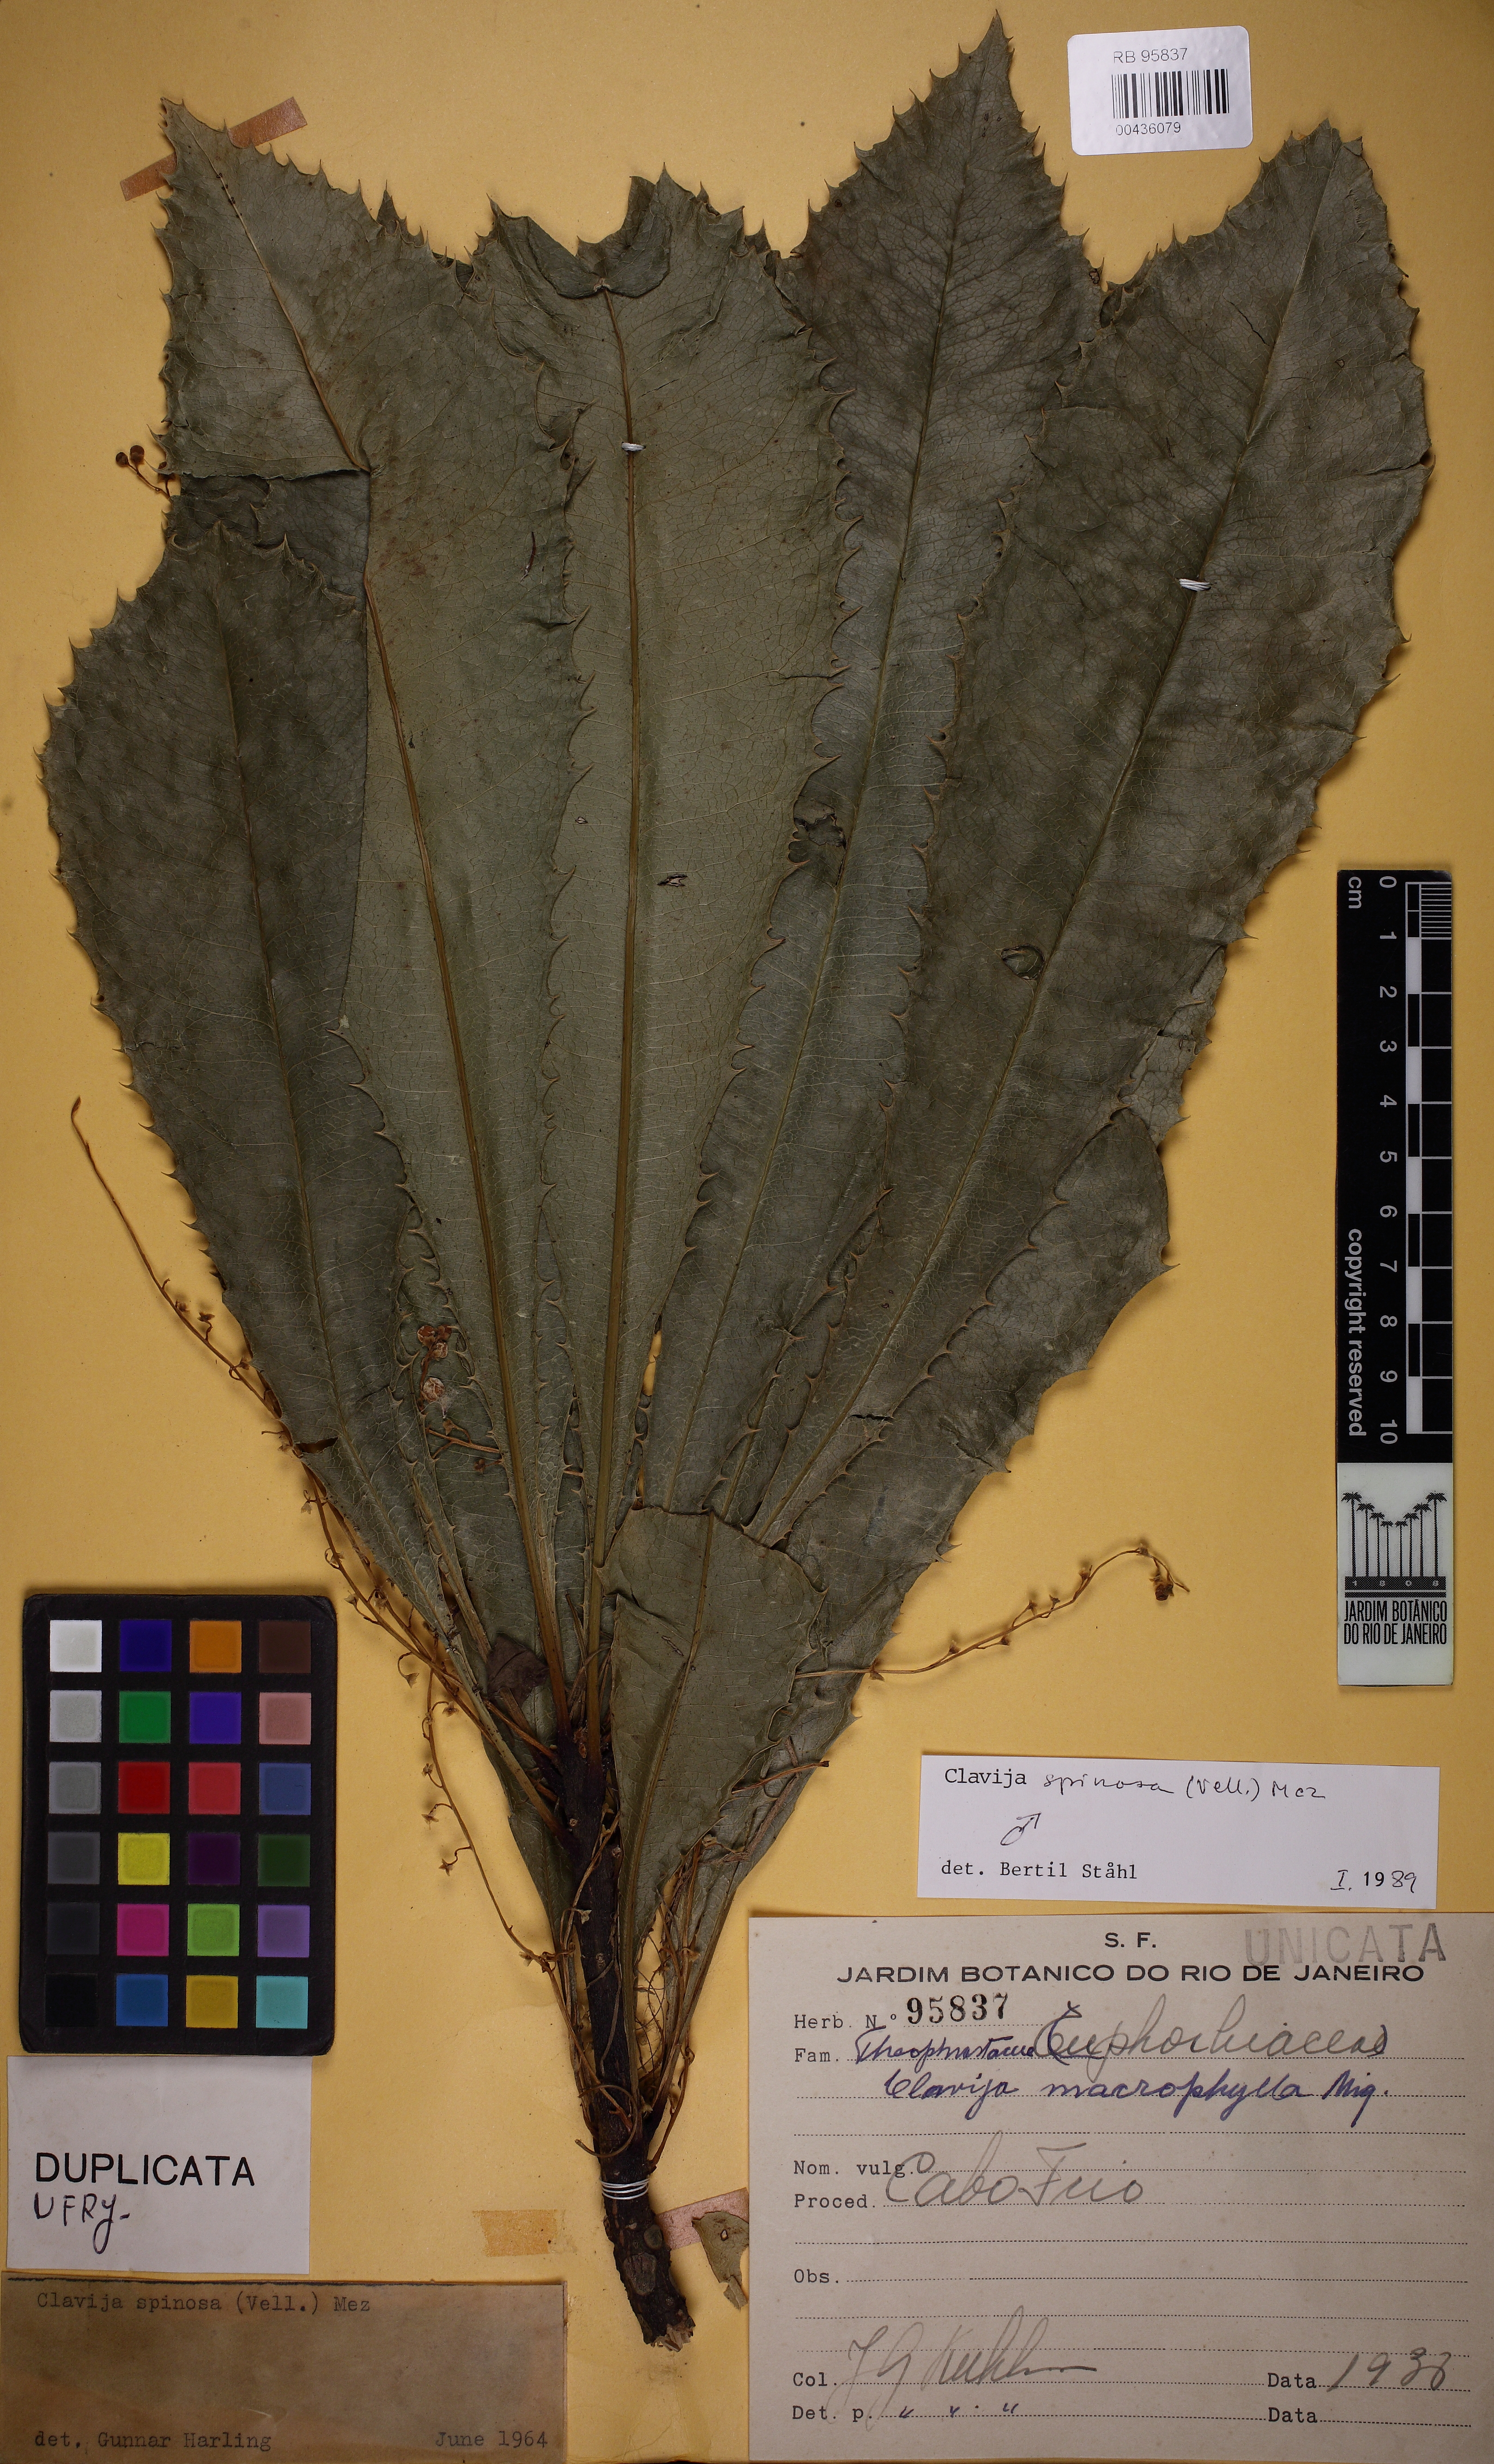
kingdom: Plantae
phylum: Tracheophyta
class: Magnoliopsida
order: Ericales
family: Primulaceae
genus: Clavija
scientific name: Clavija spinosa
